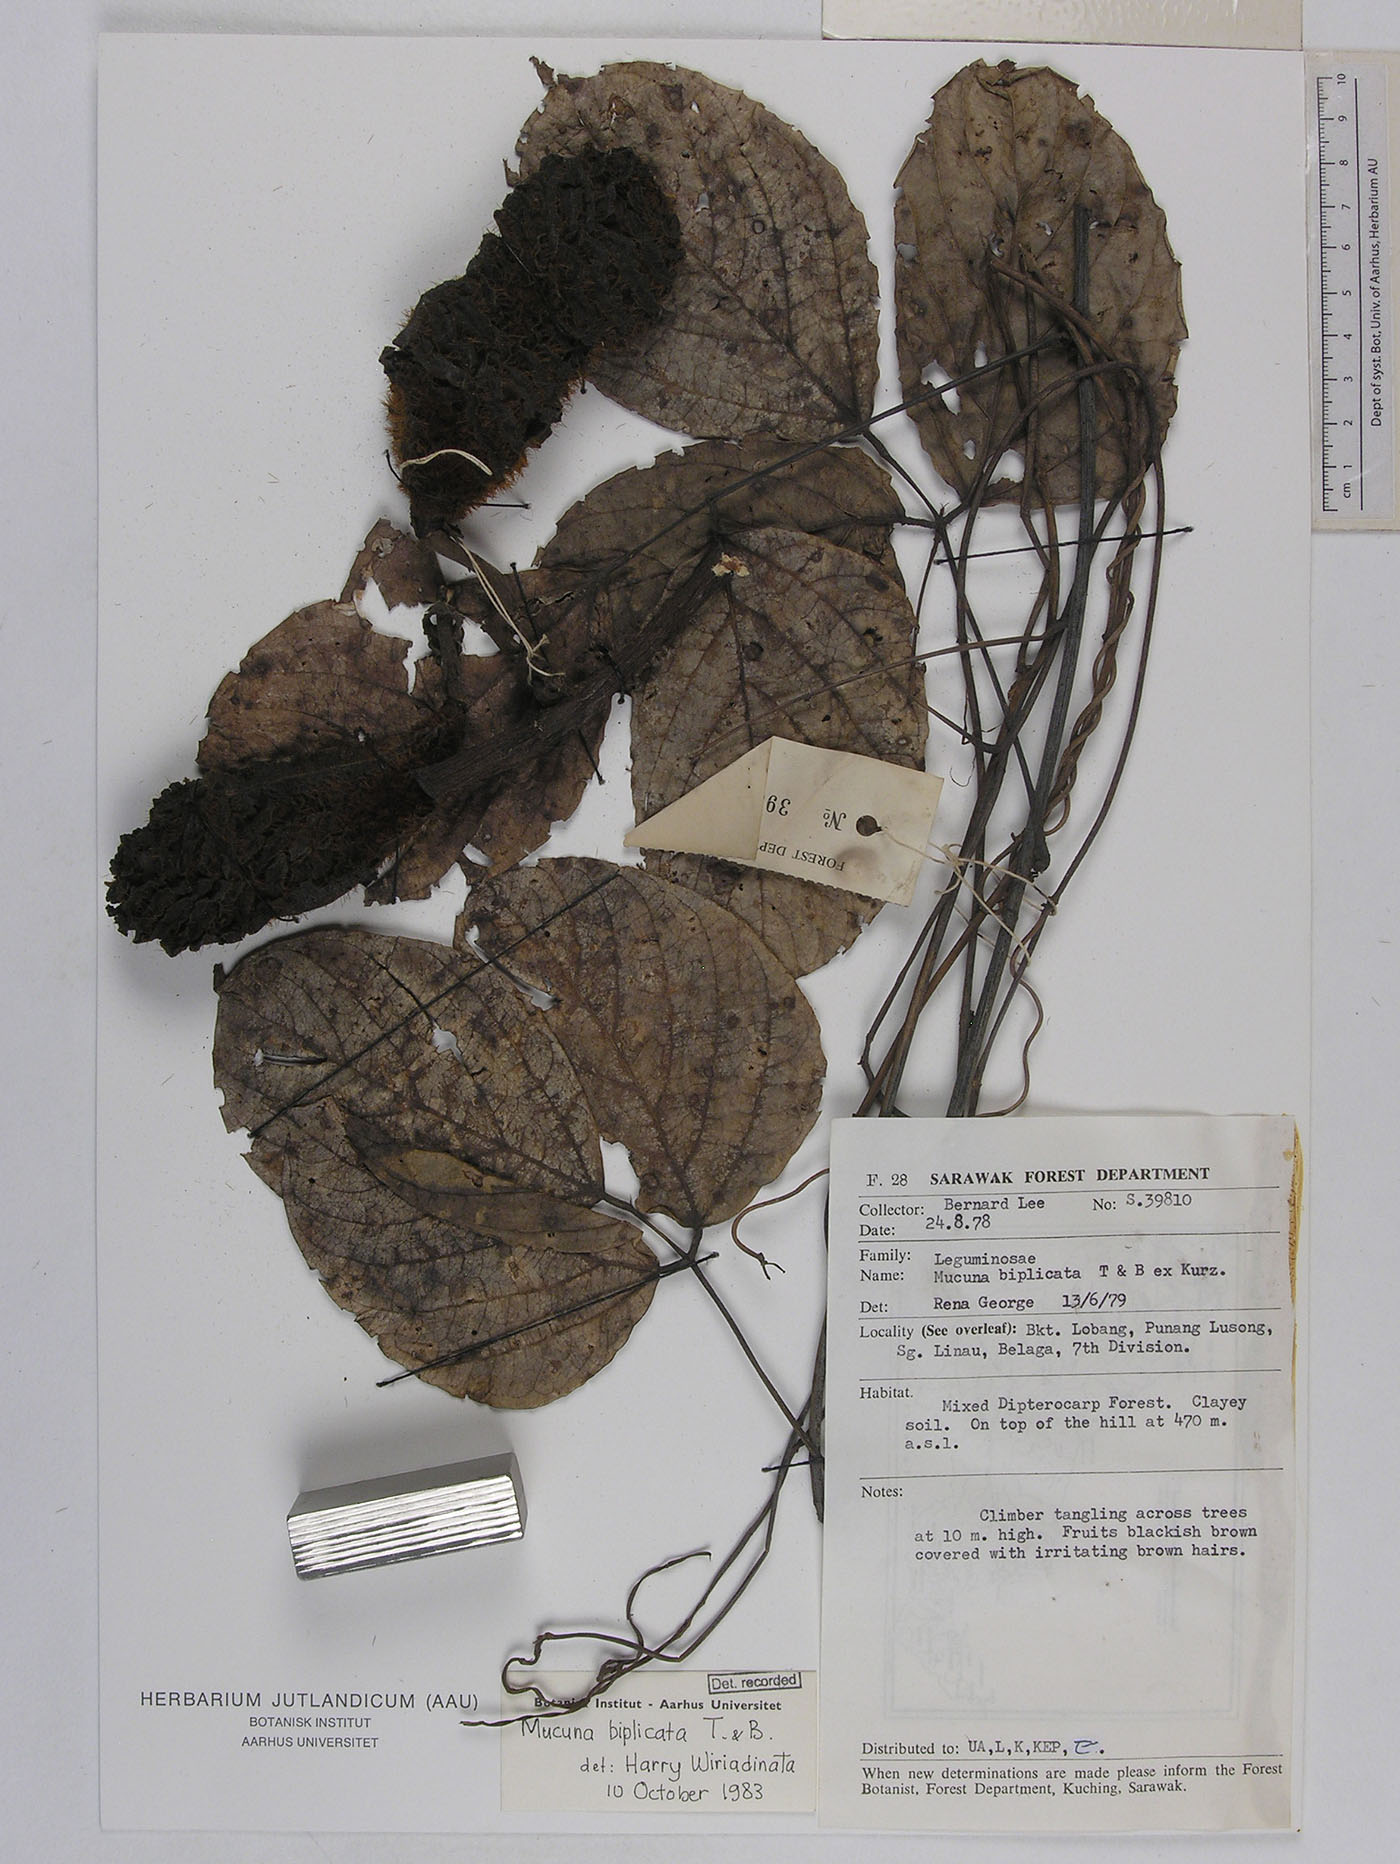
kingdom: Plantae
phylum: Tracheophyta
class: Magnoliopsida
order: Fabales
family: Fabaceae
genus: Mucuna
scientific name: Mucuna biplicata
